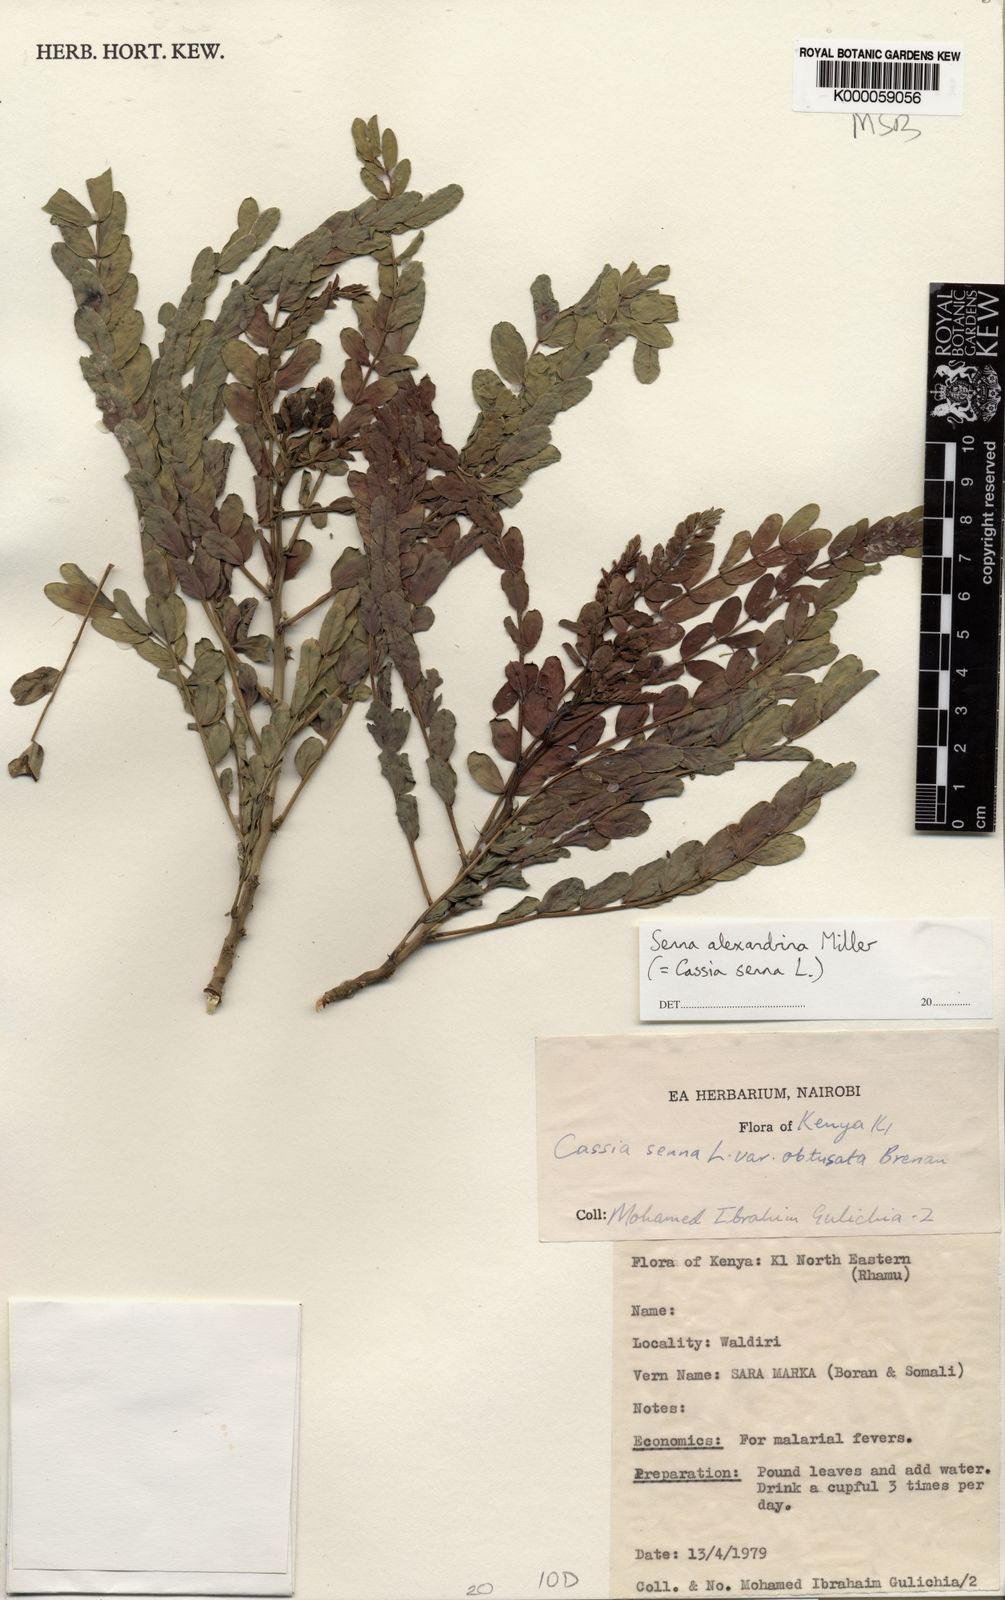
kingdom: Plantae
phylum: Tracheophyta
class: Magnoliopsida
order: Fabales
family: Fabaceae
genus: Senna
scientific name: Senna alexandrina
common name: True senna
